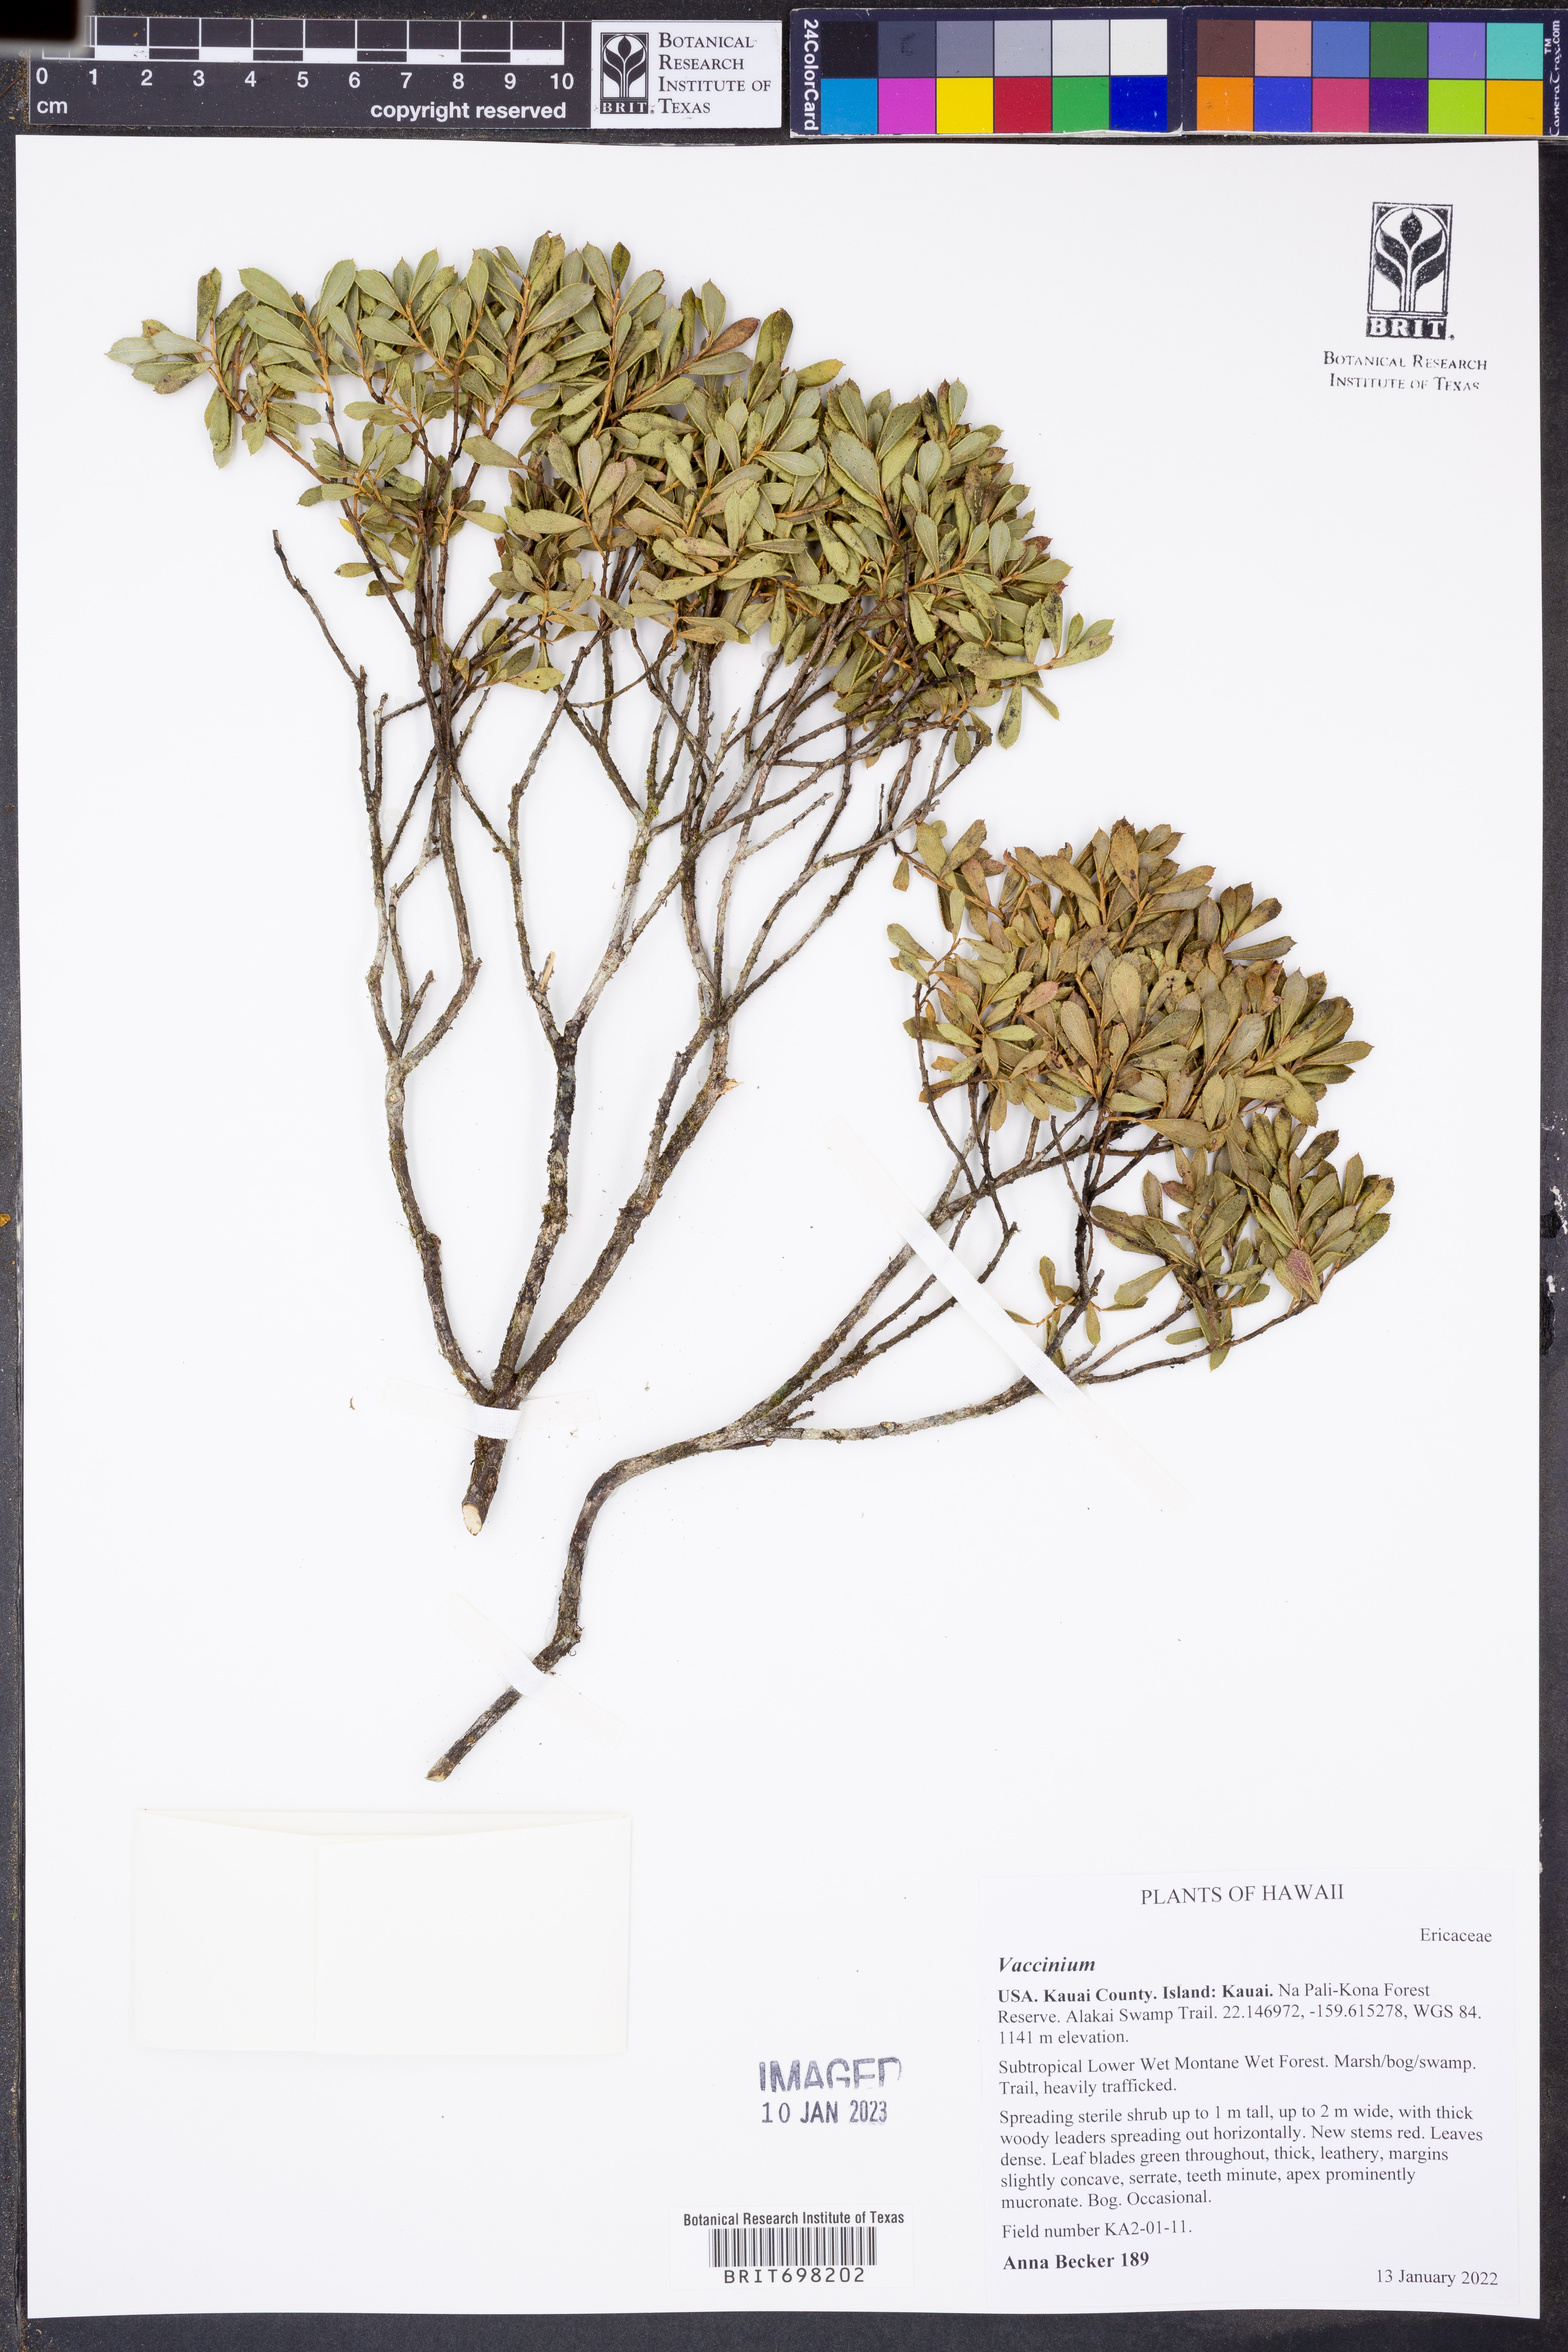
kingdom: Plantae
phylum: Tracheophyta
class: Magnoliopsida
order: Ericales
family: Ericaceae
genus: Vaccinium
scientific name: Vaccinium
